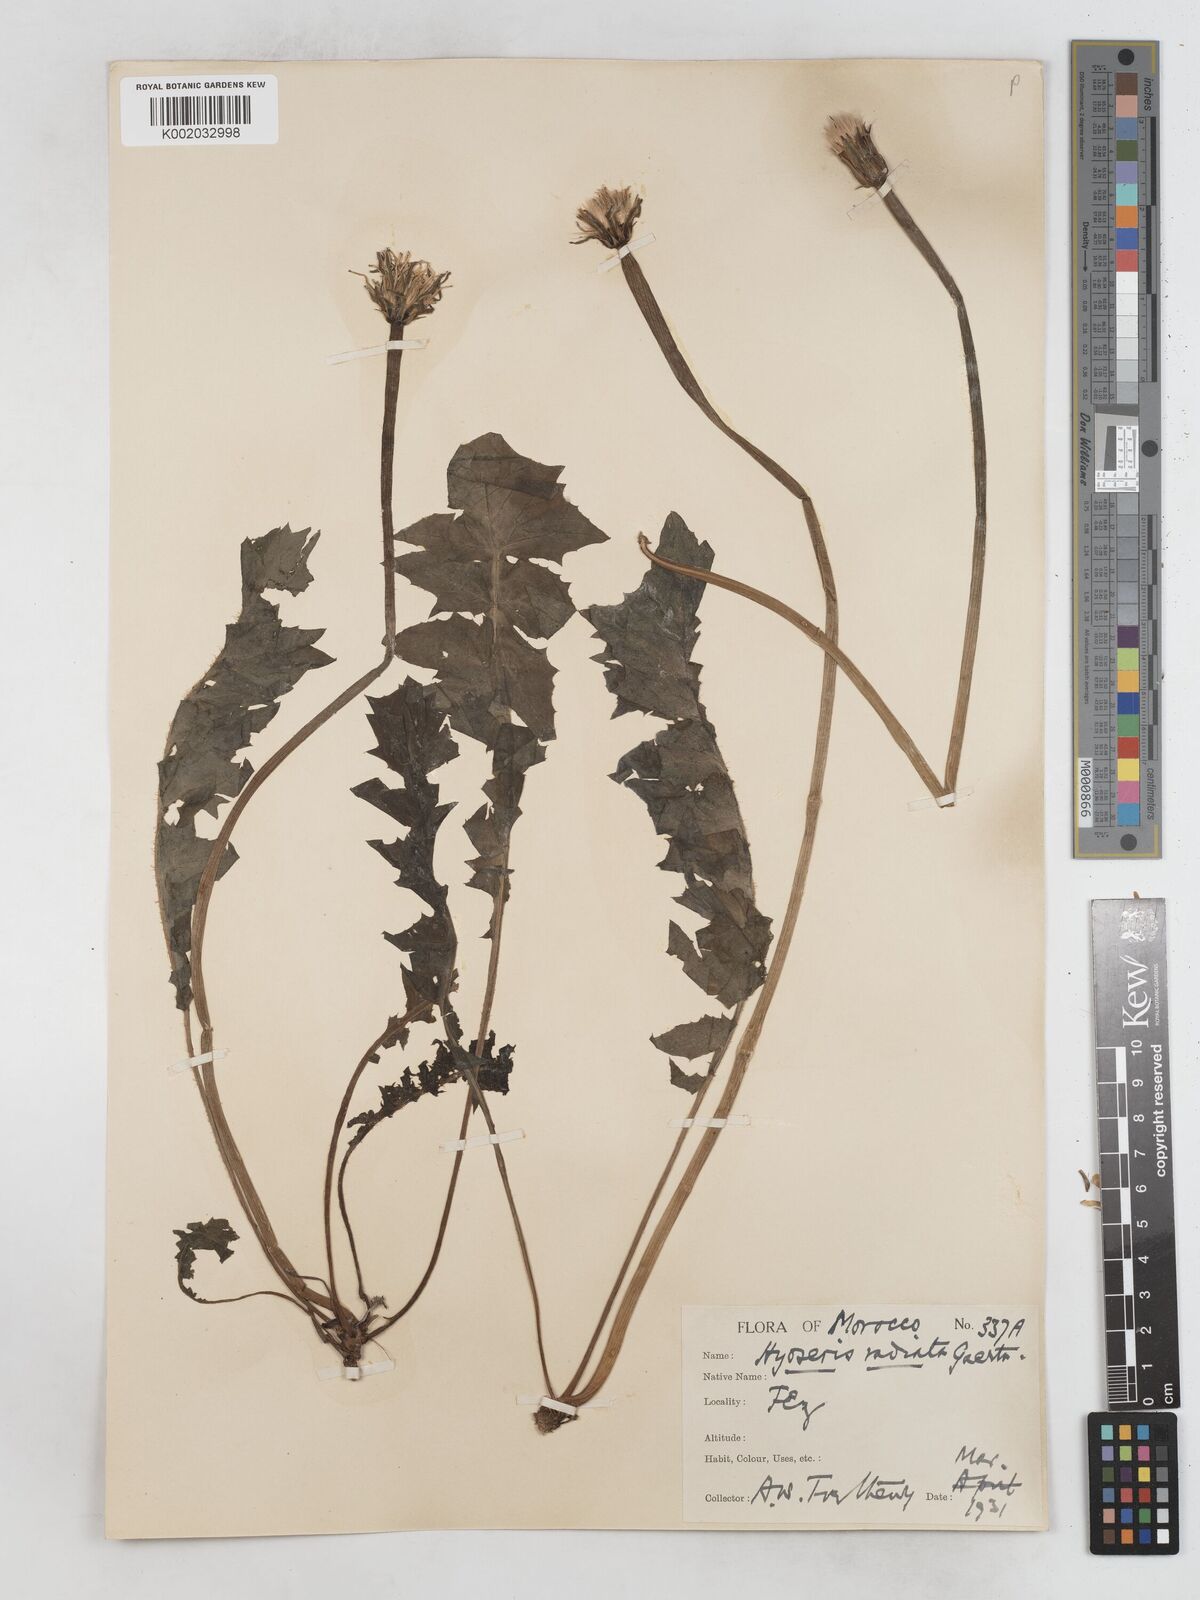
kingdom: Plantae
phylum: Tracheophyta
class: Magnoliopsida
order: Asterales
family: Asteraceae
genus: Hyoseris
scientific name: Hyoseris radiata
